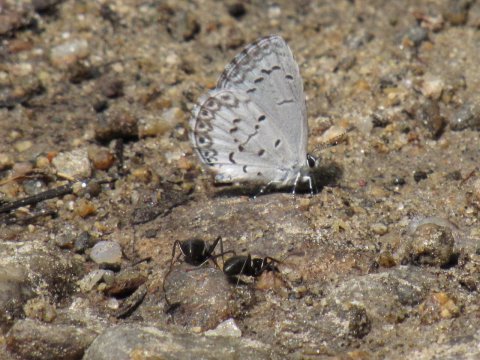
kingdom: Animalia
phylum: Arthropoda
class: Insecta
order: Lepidoptera
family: Lycaenidae
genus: Celastrina
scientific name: Celastrina
